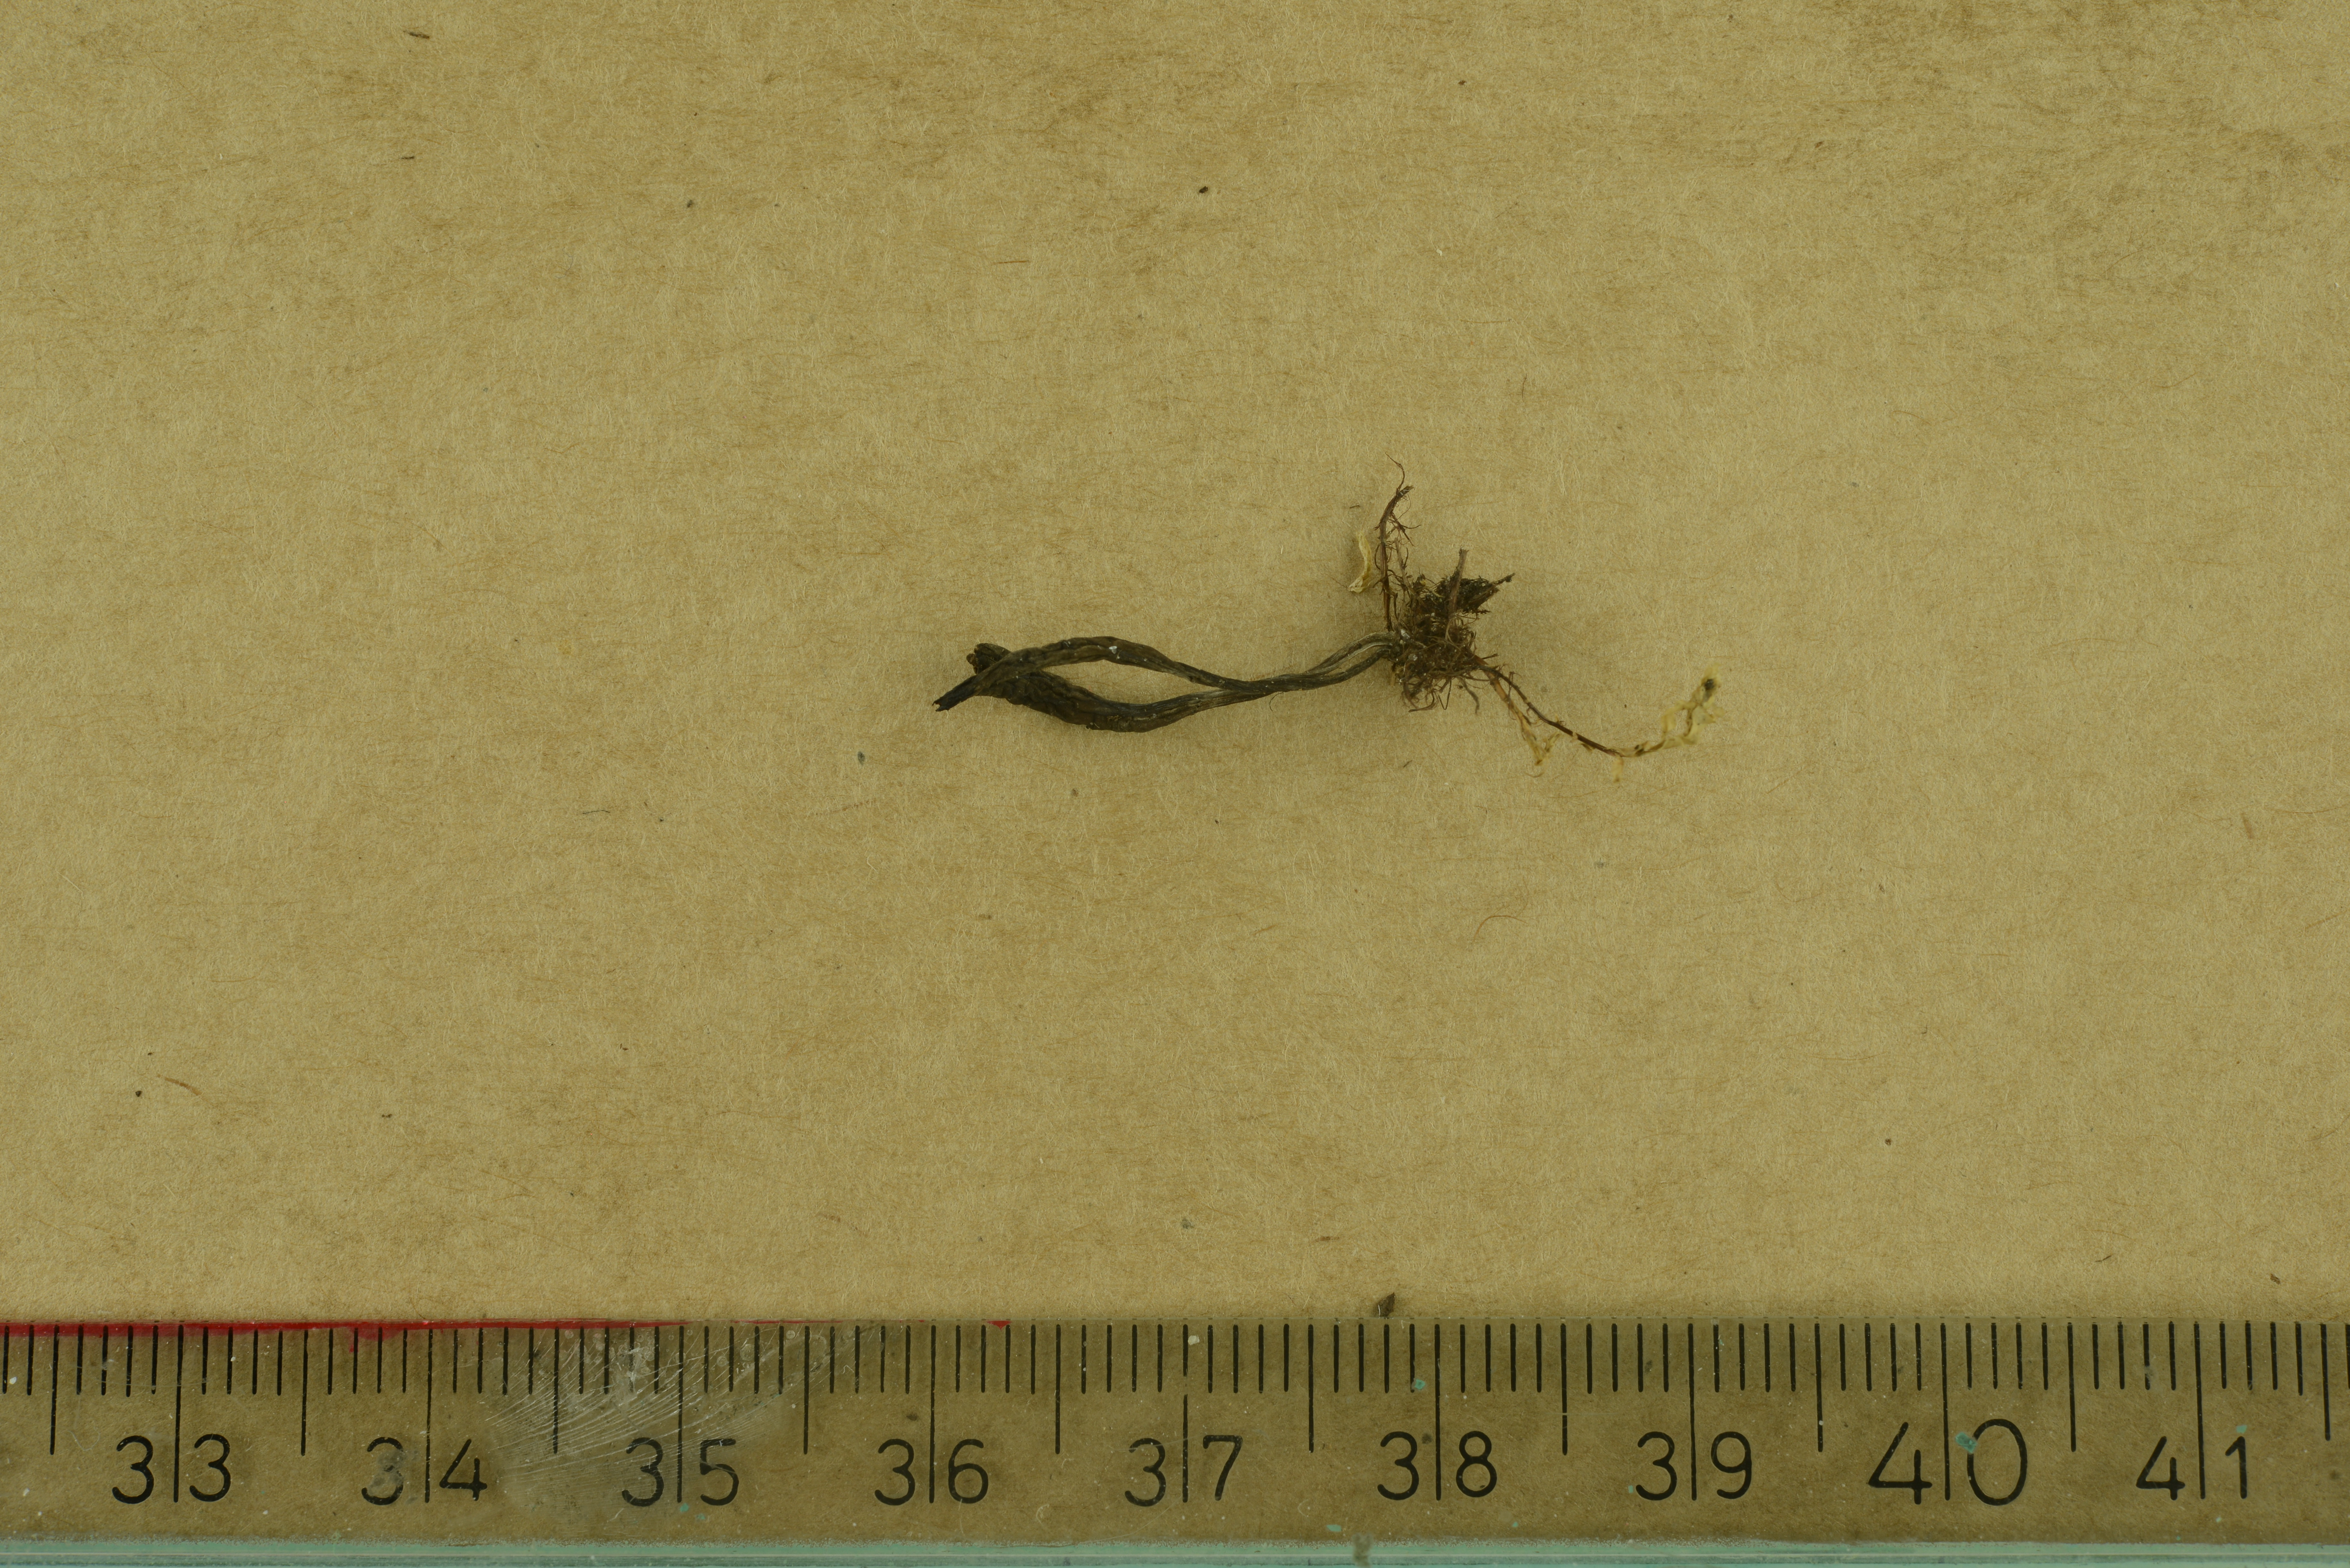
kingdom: Fungi
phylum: Basidiomycota
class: Agaricomycetes
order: Agaricales
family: Clavariaceae
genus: Clavaria
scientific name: Clavaria atrofusca
